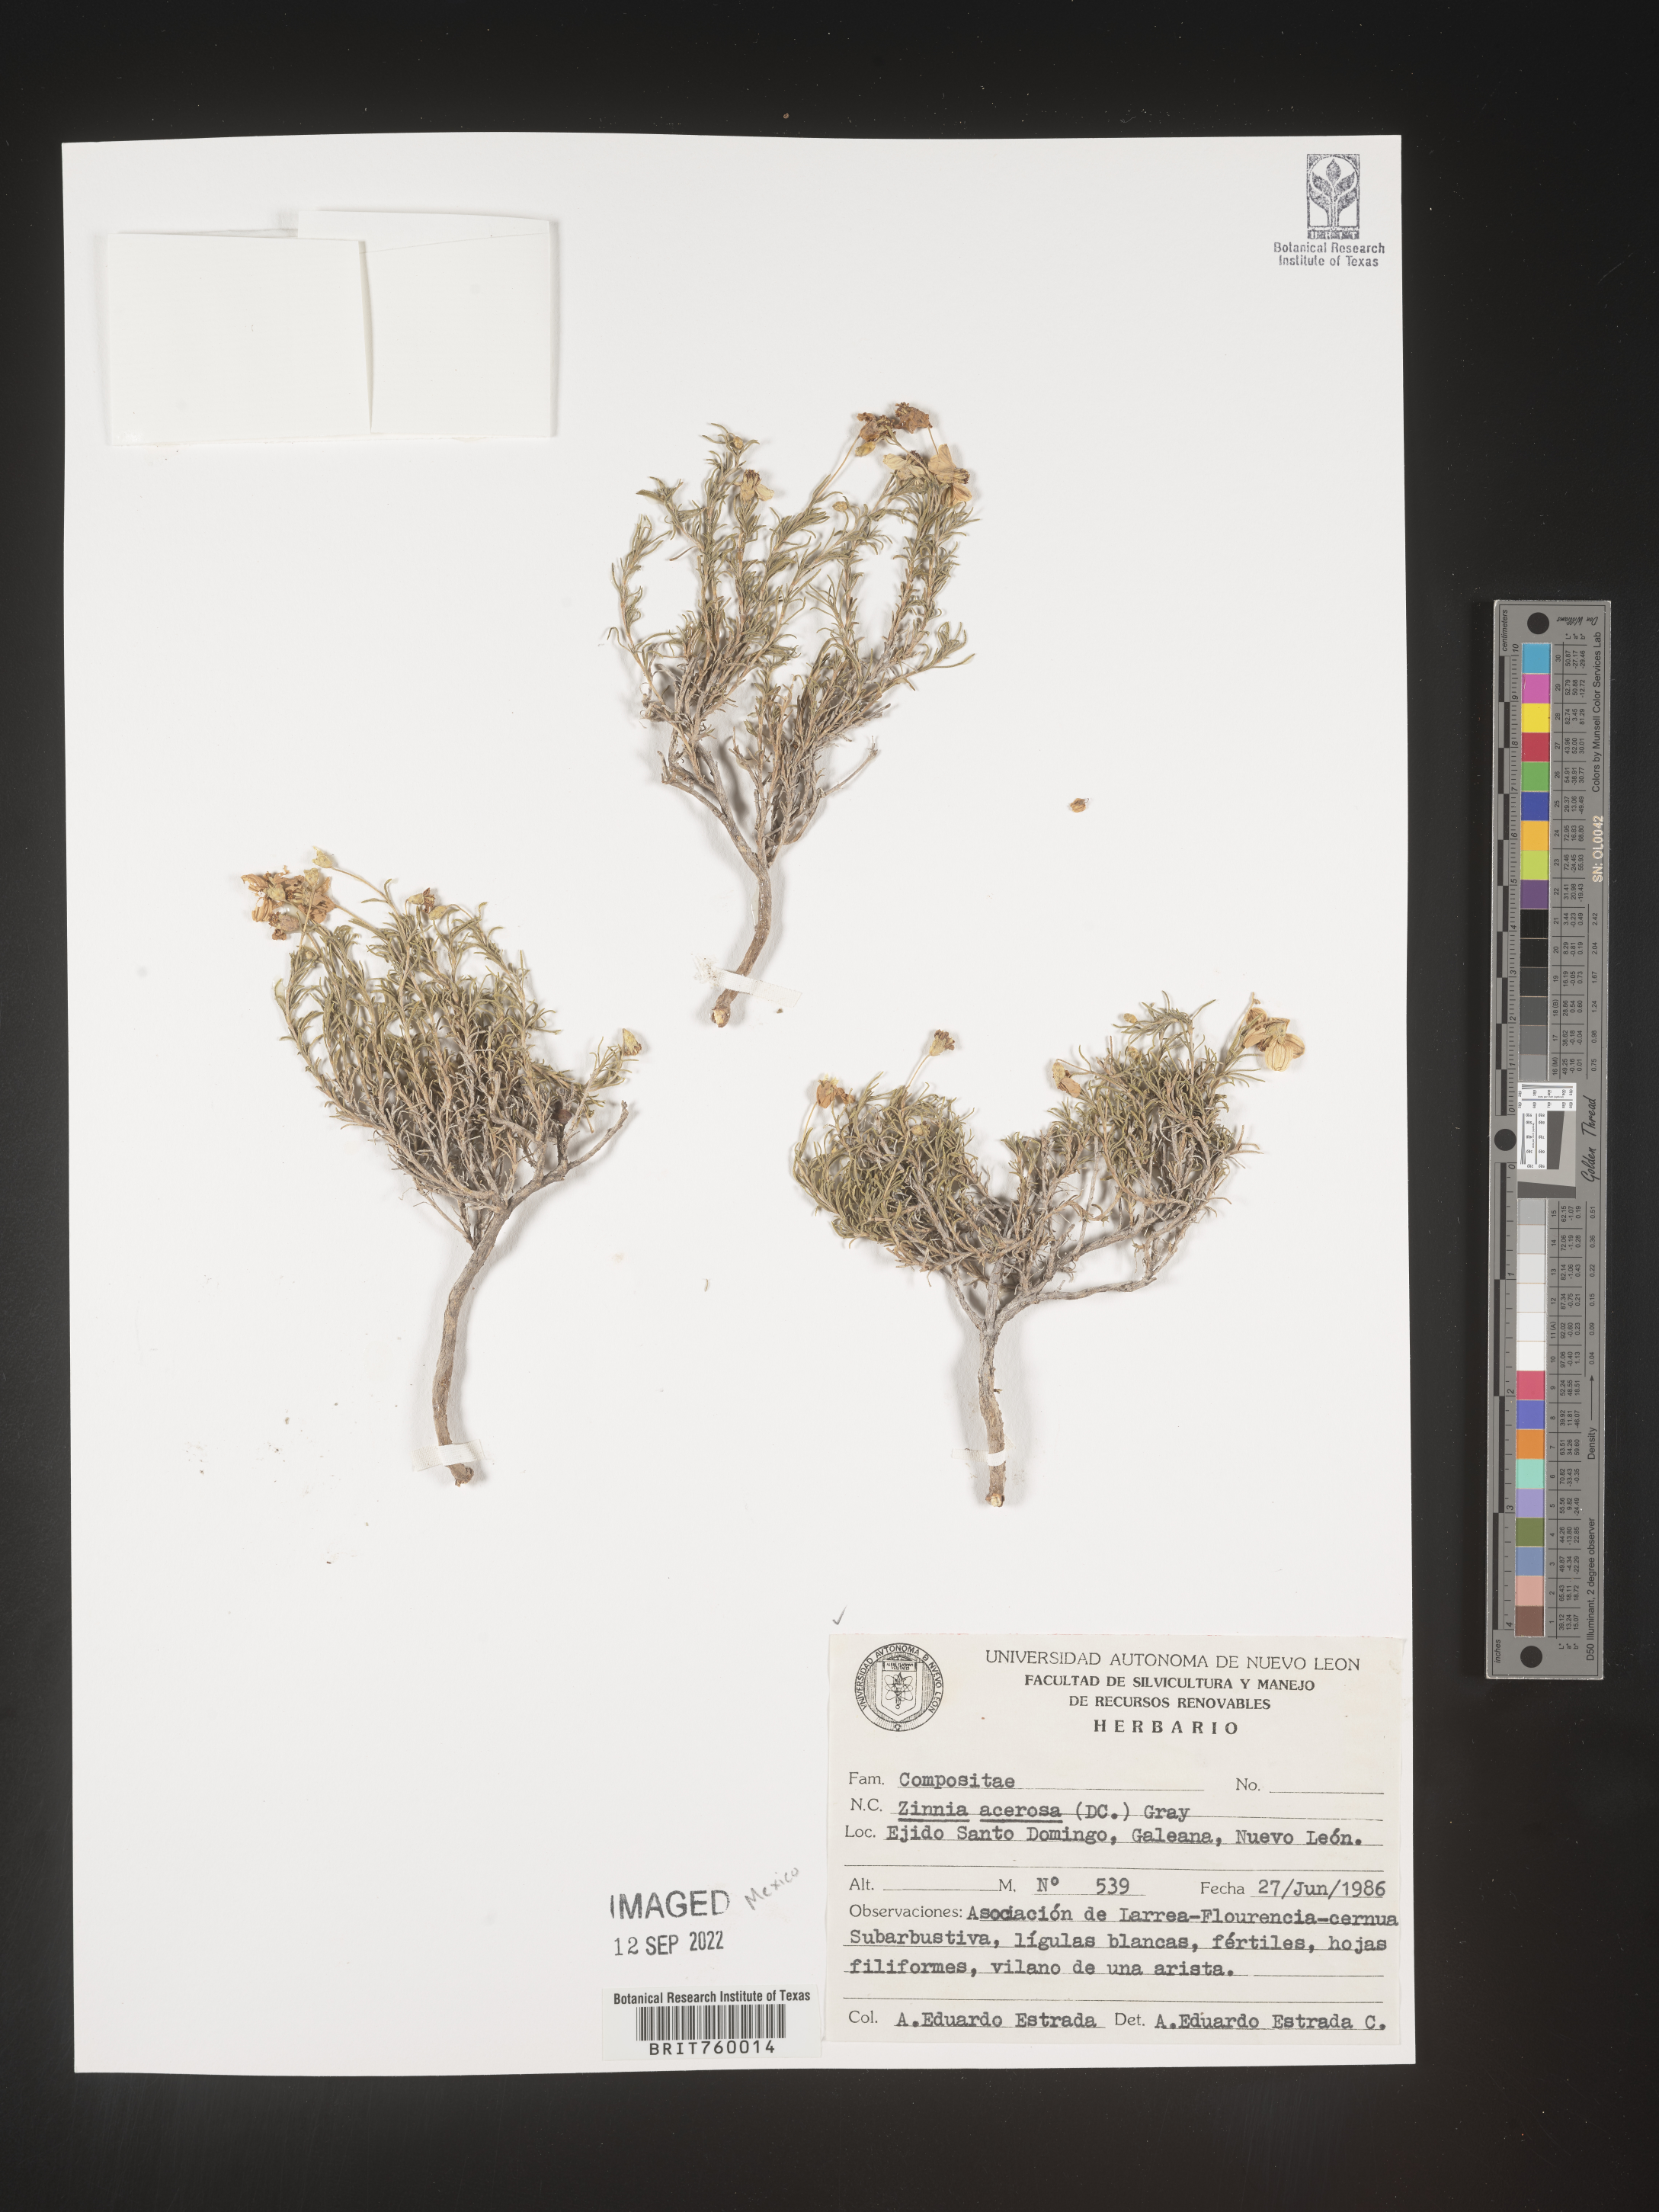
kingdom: Plantae
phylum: Tracheophyta
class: Magnoliopsida
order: Asterales
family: Asteraceae
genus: Zinnia
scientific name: Zinnia
